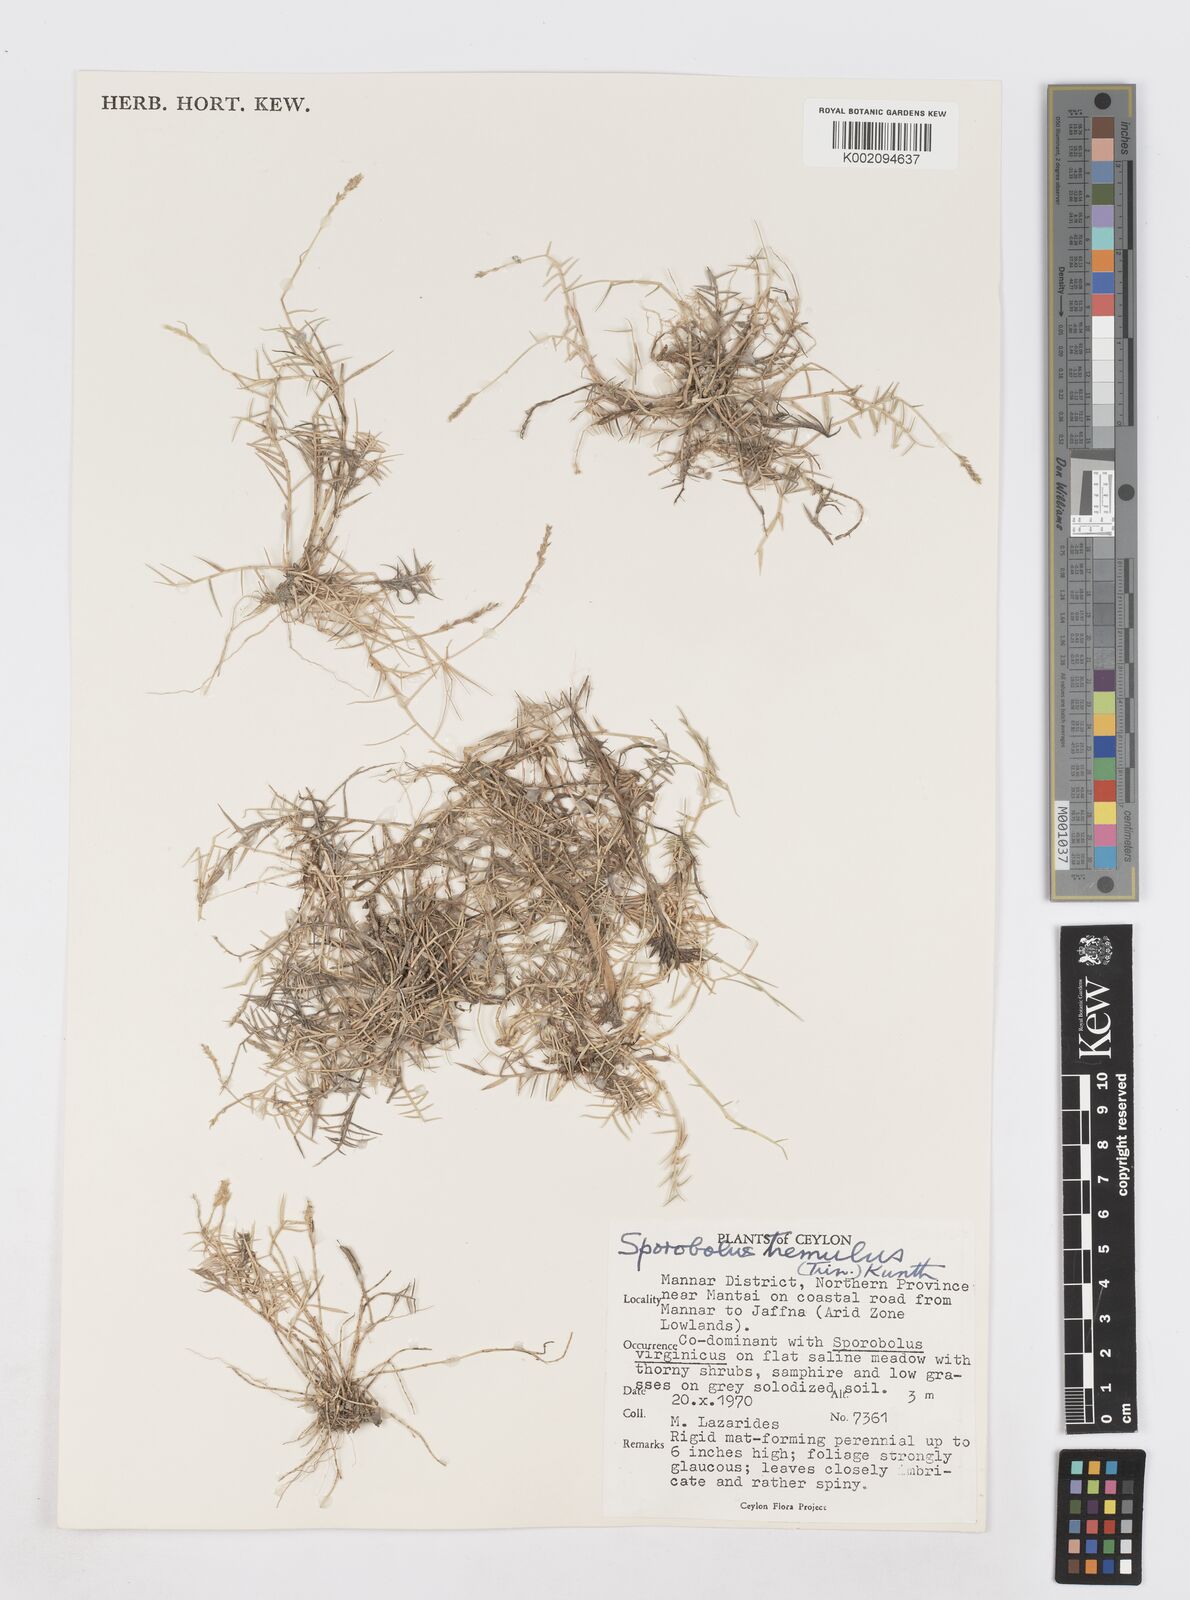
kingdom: Plantae
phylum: Tracheophyta
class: Liliopsida
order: Poales
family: Poaceae
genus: Sporobolus
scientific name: Sporobolus virginicus
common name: Beach dropseed
